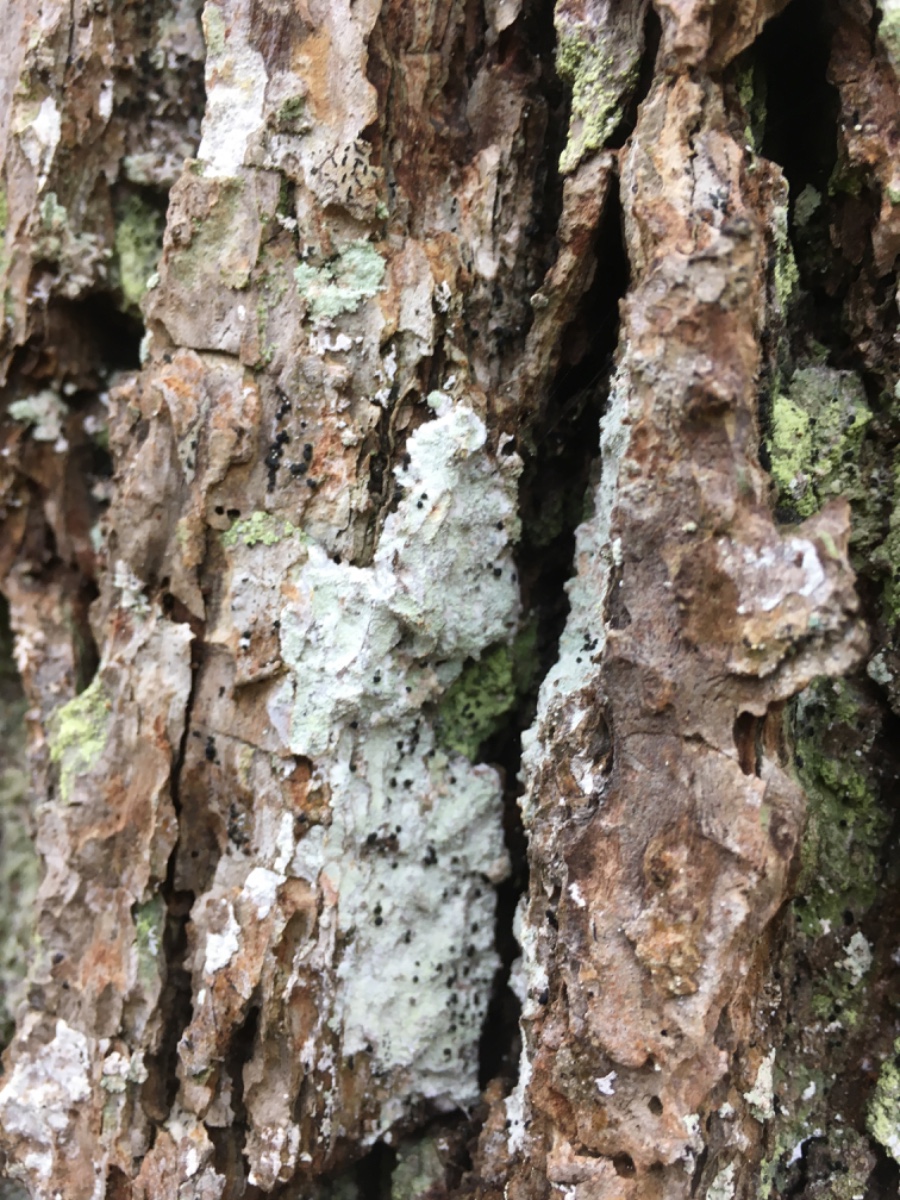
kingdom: Fungi
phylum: Ascomycota
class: Lecanoromycetes
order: Lecanorales
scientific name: Lecanorales
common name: skivelavordenen
